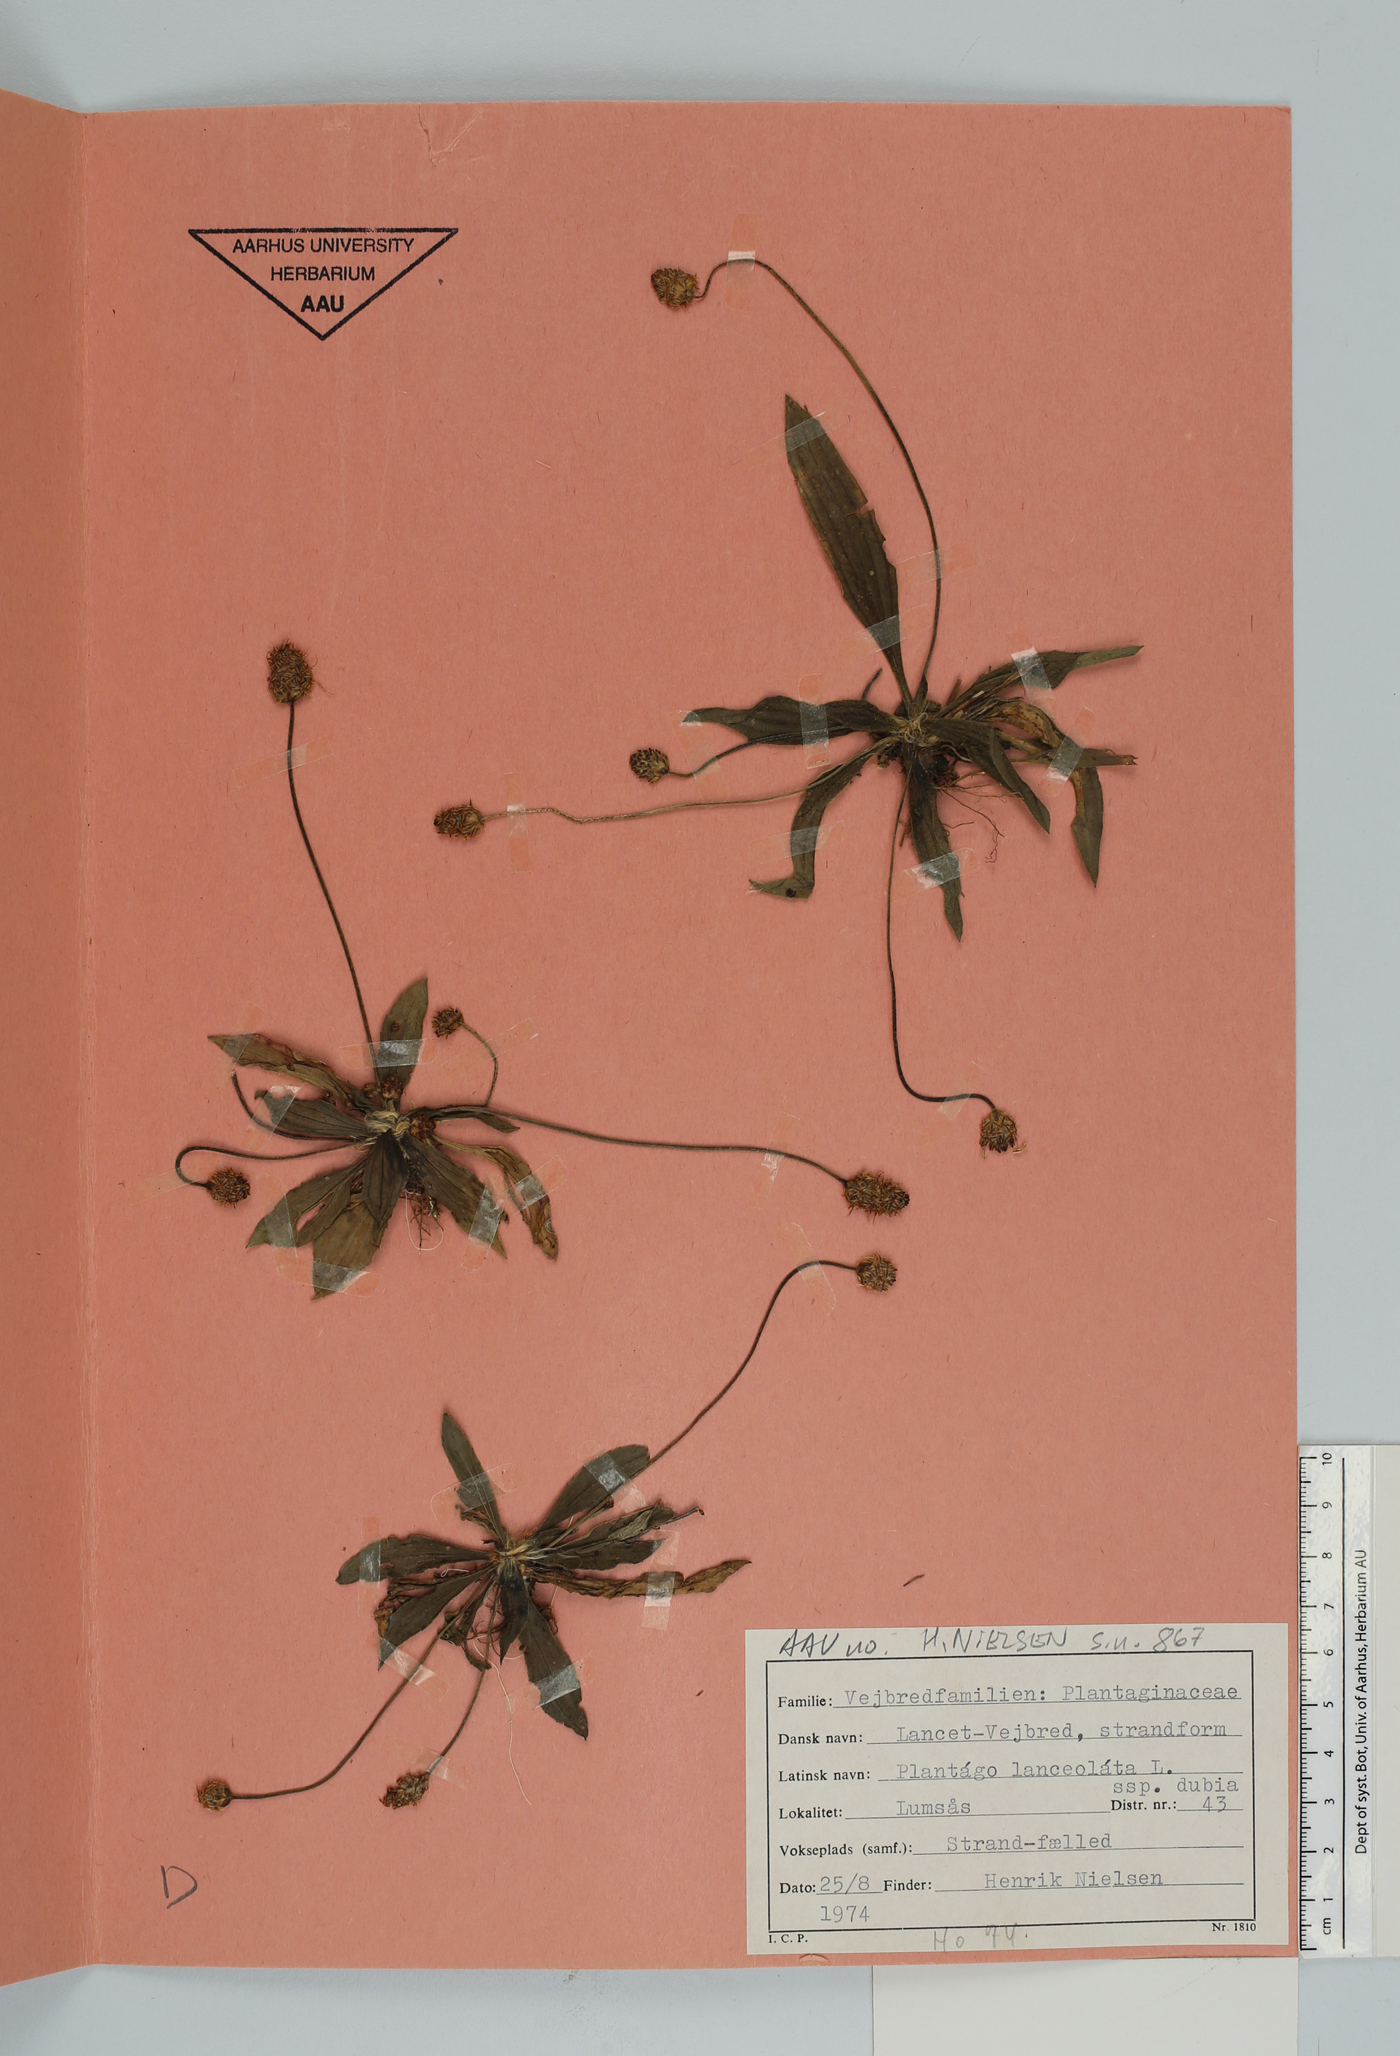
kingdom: Plantae
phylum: Tracheophyta
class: Magnoliopsida
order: Lamiales
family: Plantaginaceae
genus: Plantago
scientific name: Plantago lanceolata
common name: Ribwort plantain
